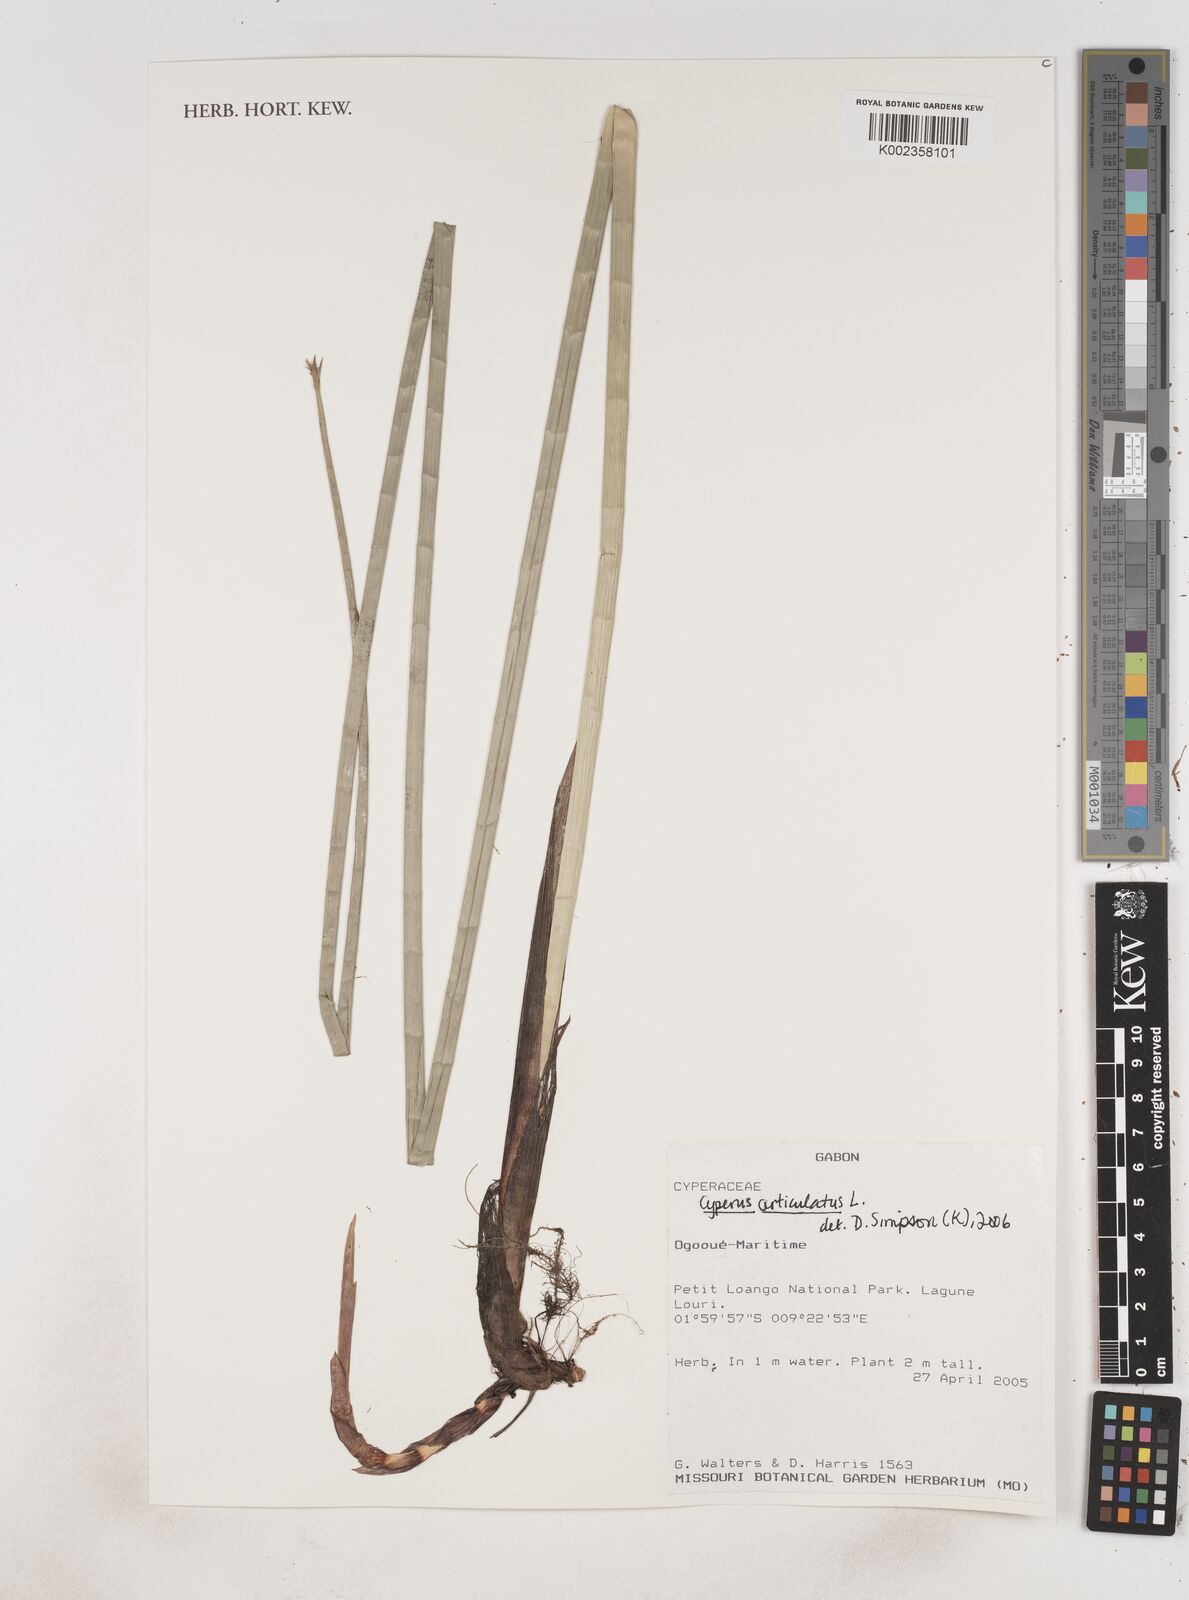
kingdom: Plantae
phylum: Tracheophyta
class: Liliopsida
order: Poales
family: Cyperaceae
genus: Cyperus
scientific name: Cyperus articulatus
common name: Jointed flatsedge
